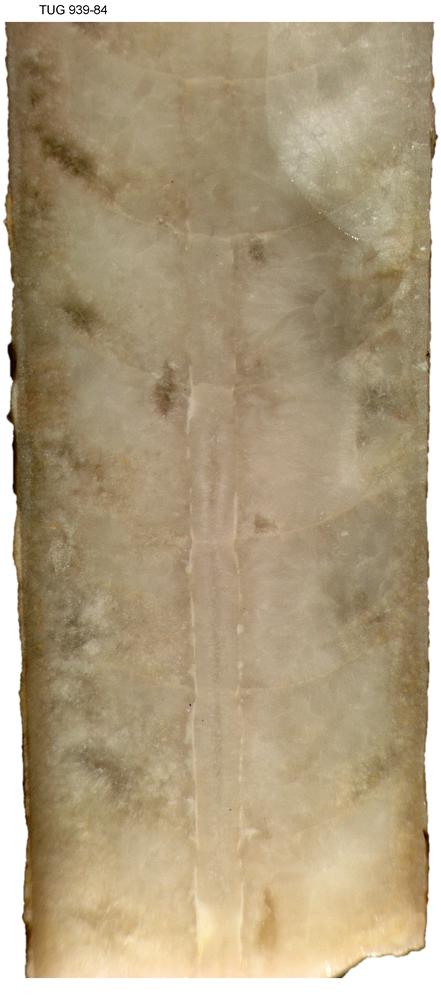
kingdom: Animalia
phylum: Mollusca
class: Cephalopoda
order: Orthocerida
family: Orthoceratidae
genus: Pleurorthoceras
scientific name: Pleurorthoceras organi
